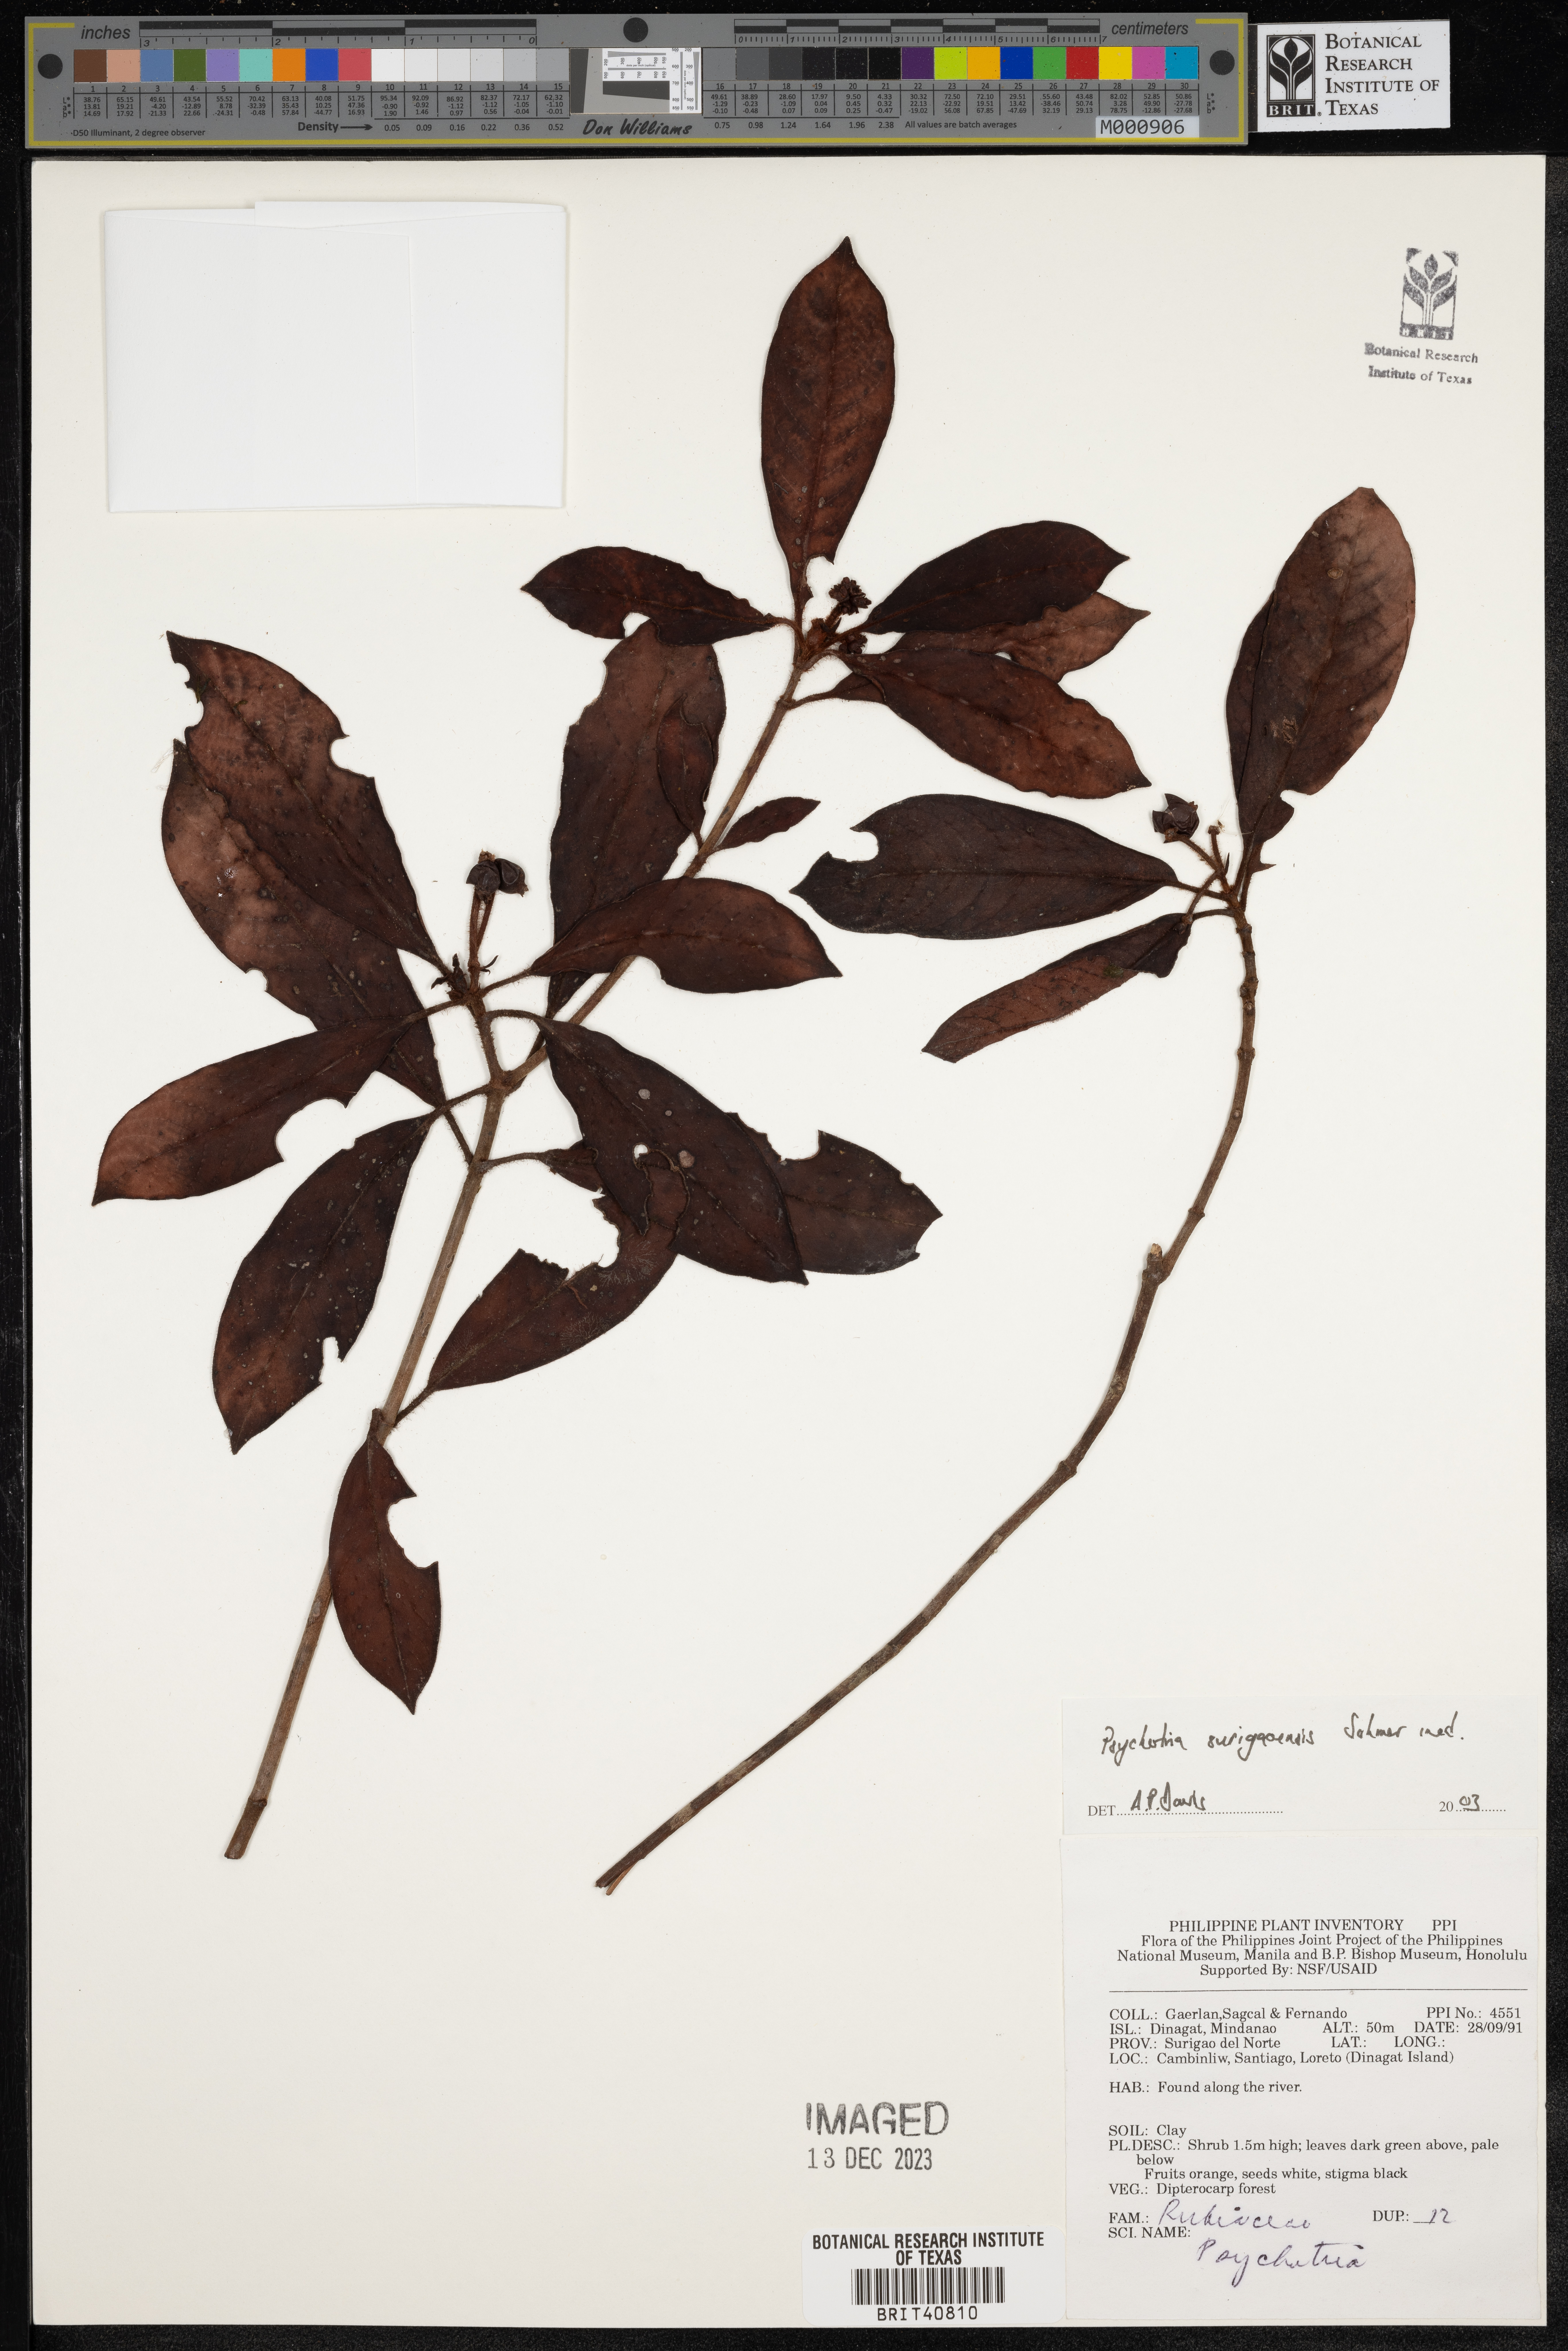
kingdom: Plantae
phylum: Tracheophyta
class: Magnoliopsida
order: Gentianales
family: Rubiaceae
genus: Psychotria
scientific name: Psychotria surigaoensis
